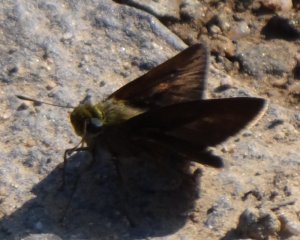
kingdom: Animalia
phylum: Arthropoda
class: Insecta
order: Lepidoptera
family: Hesperiidae
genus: Euphyes
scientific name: Euphyes vestris
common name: Dun Skipper
